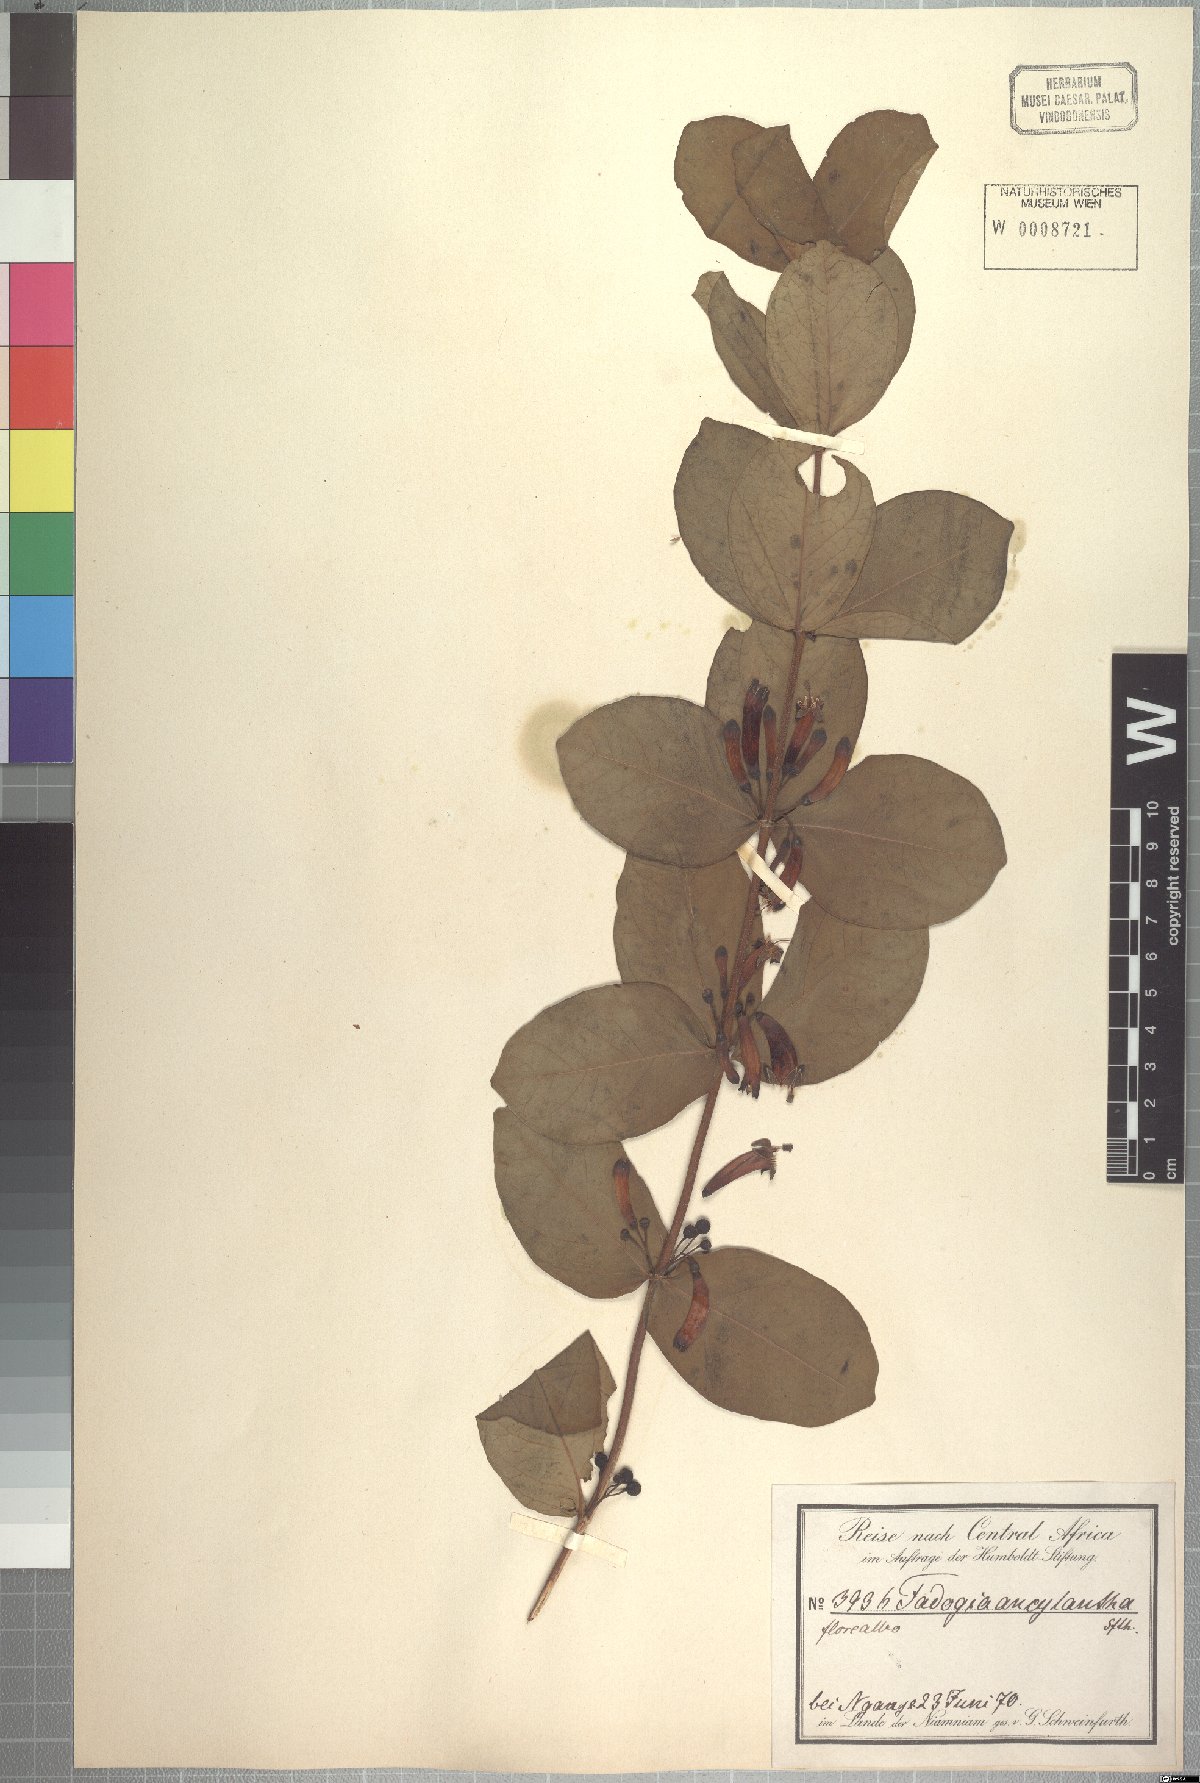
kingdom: Plantae
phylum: Tracheophyta
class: Magnoliopsida
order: Gentianales
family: Rubiaceae
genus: Fadogia
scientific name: Fadogia ancylantha
